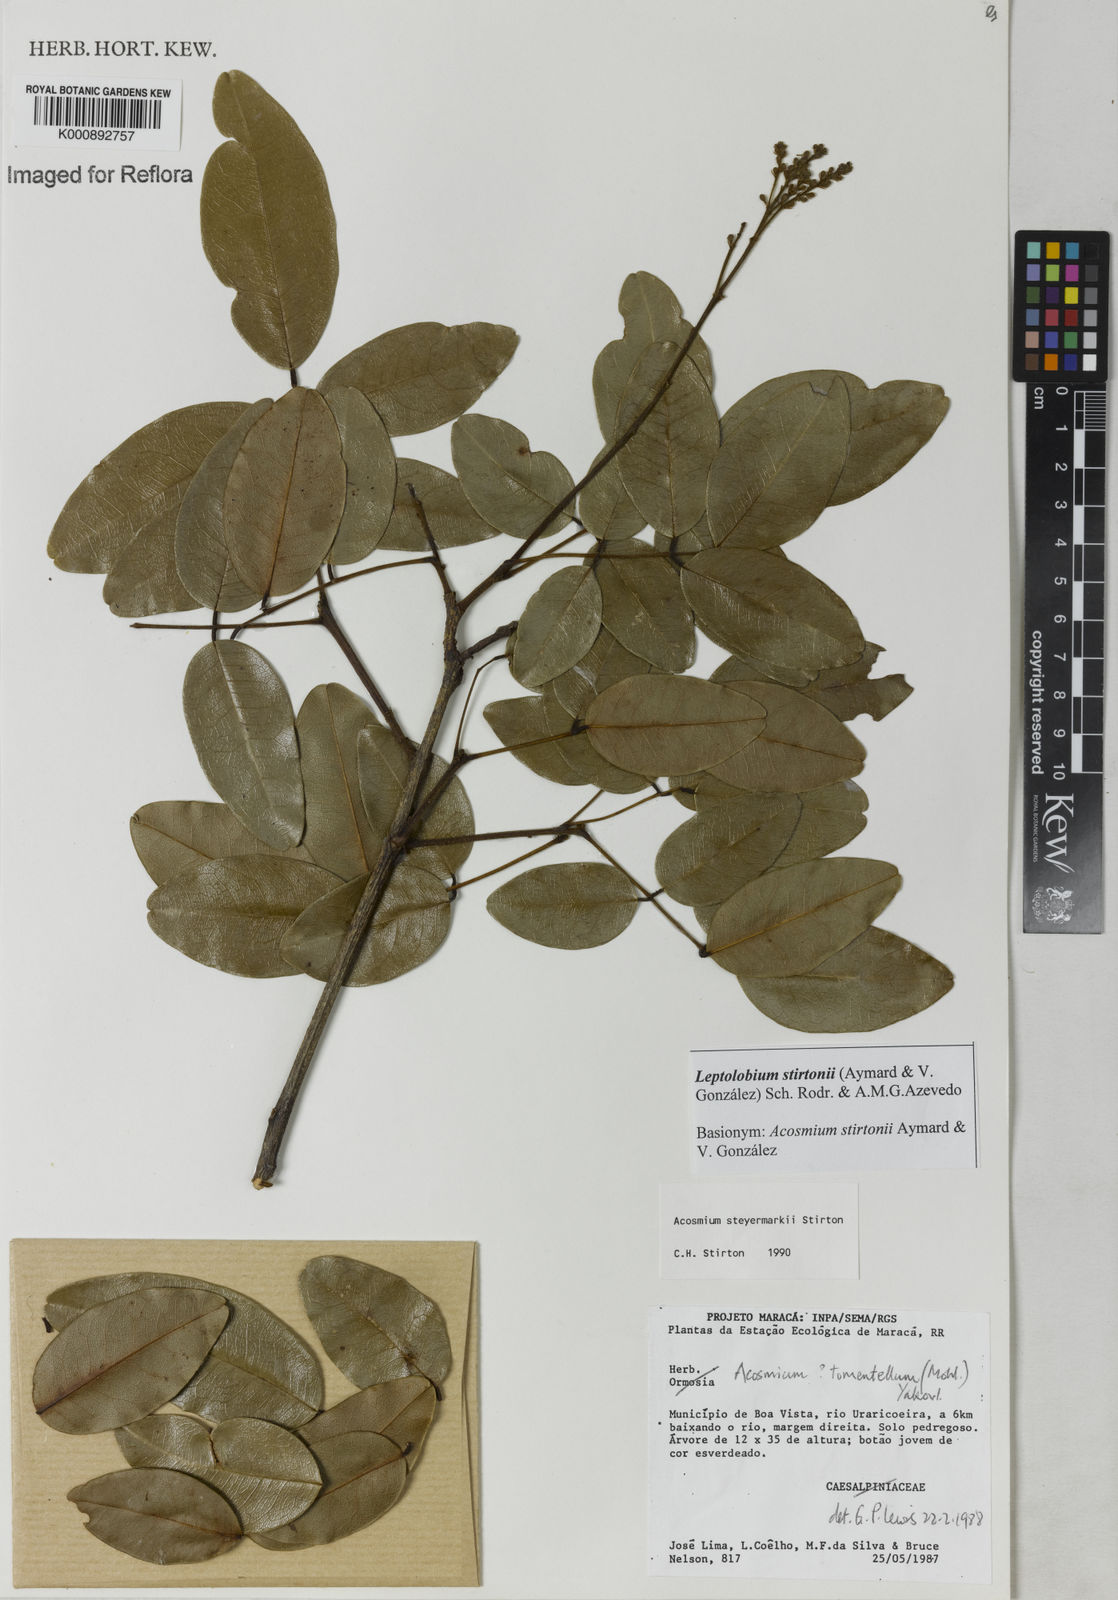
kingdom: Plantae
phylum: Tracheophyta
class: Magnoliopsida
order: Fabales
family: Fabaceae
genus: Leptolobium
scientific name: Leptolobium
